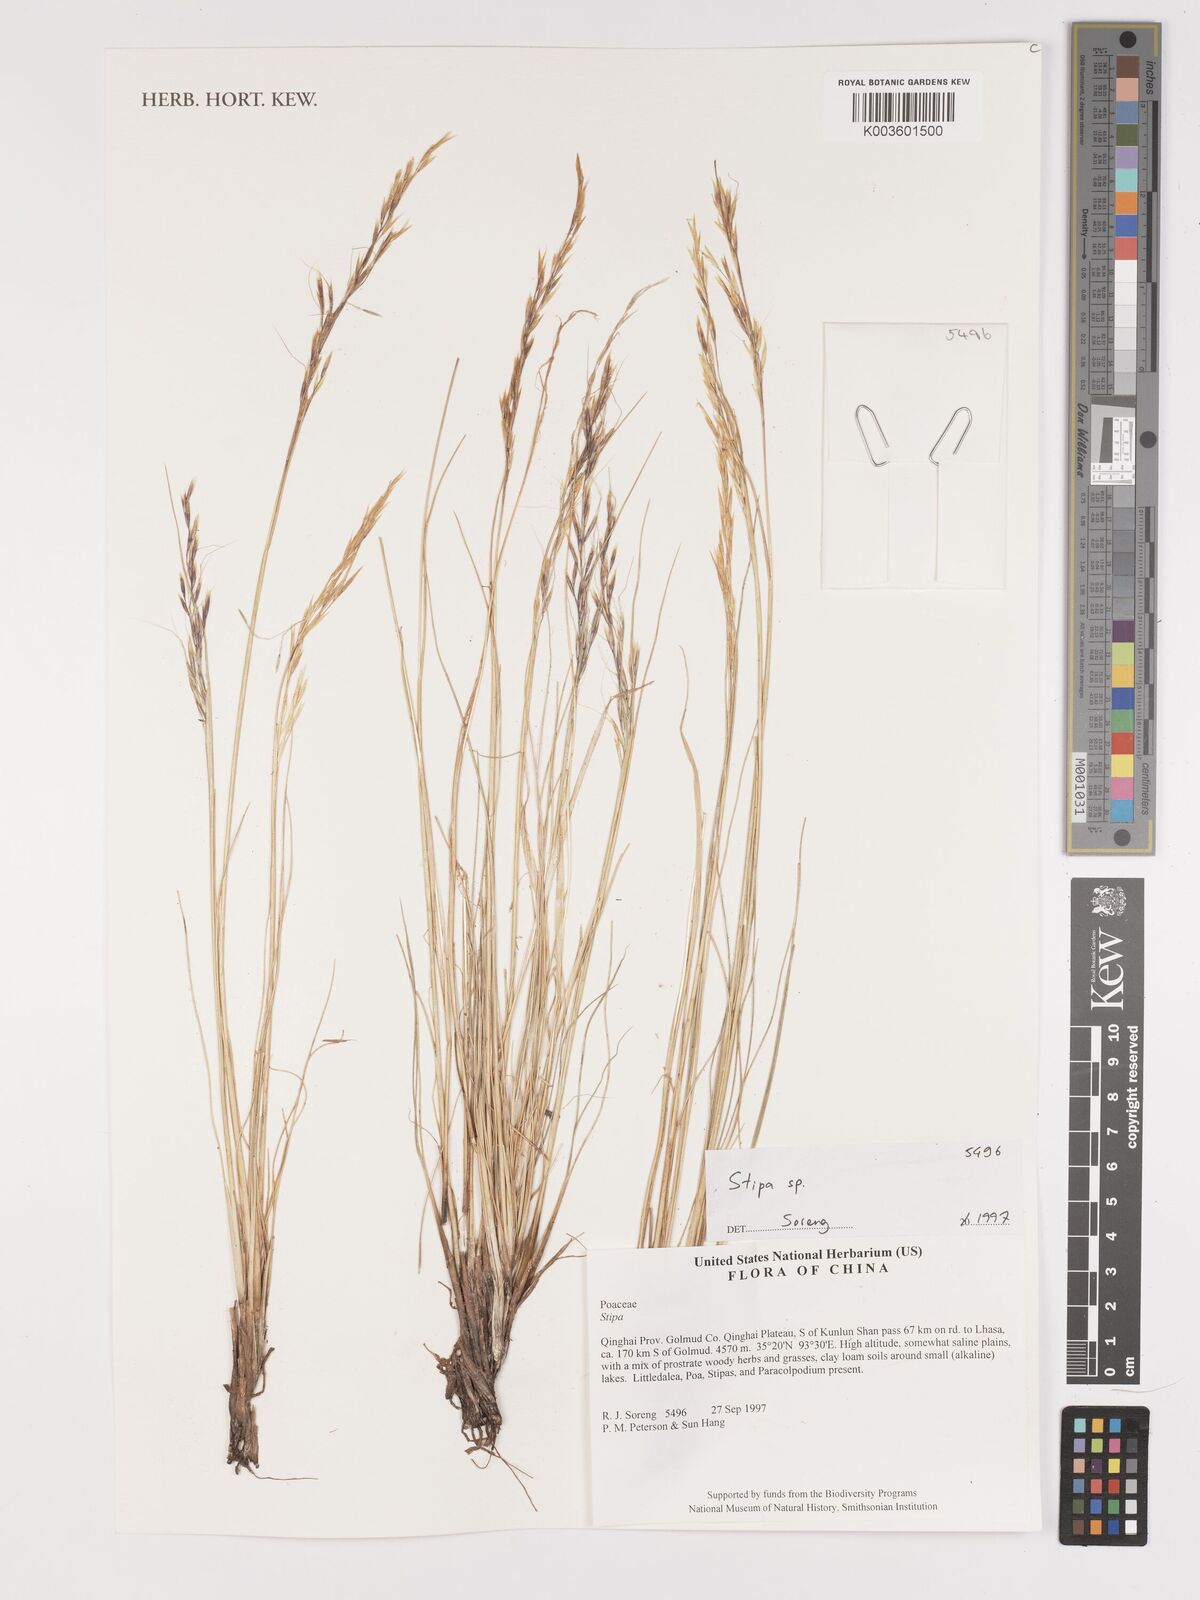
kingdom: Plantae
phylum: Tracheophyta
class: Liliopsida
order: Poales
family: Poaceae
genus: Stipa
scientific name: Stipa
